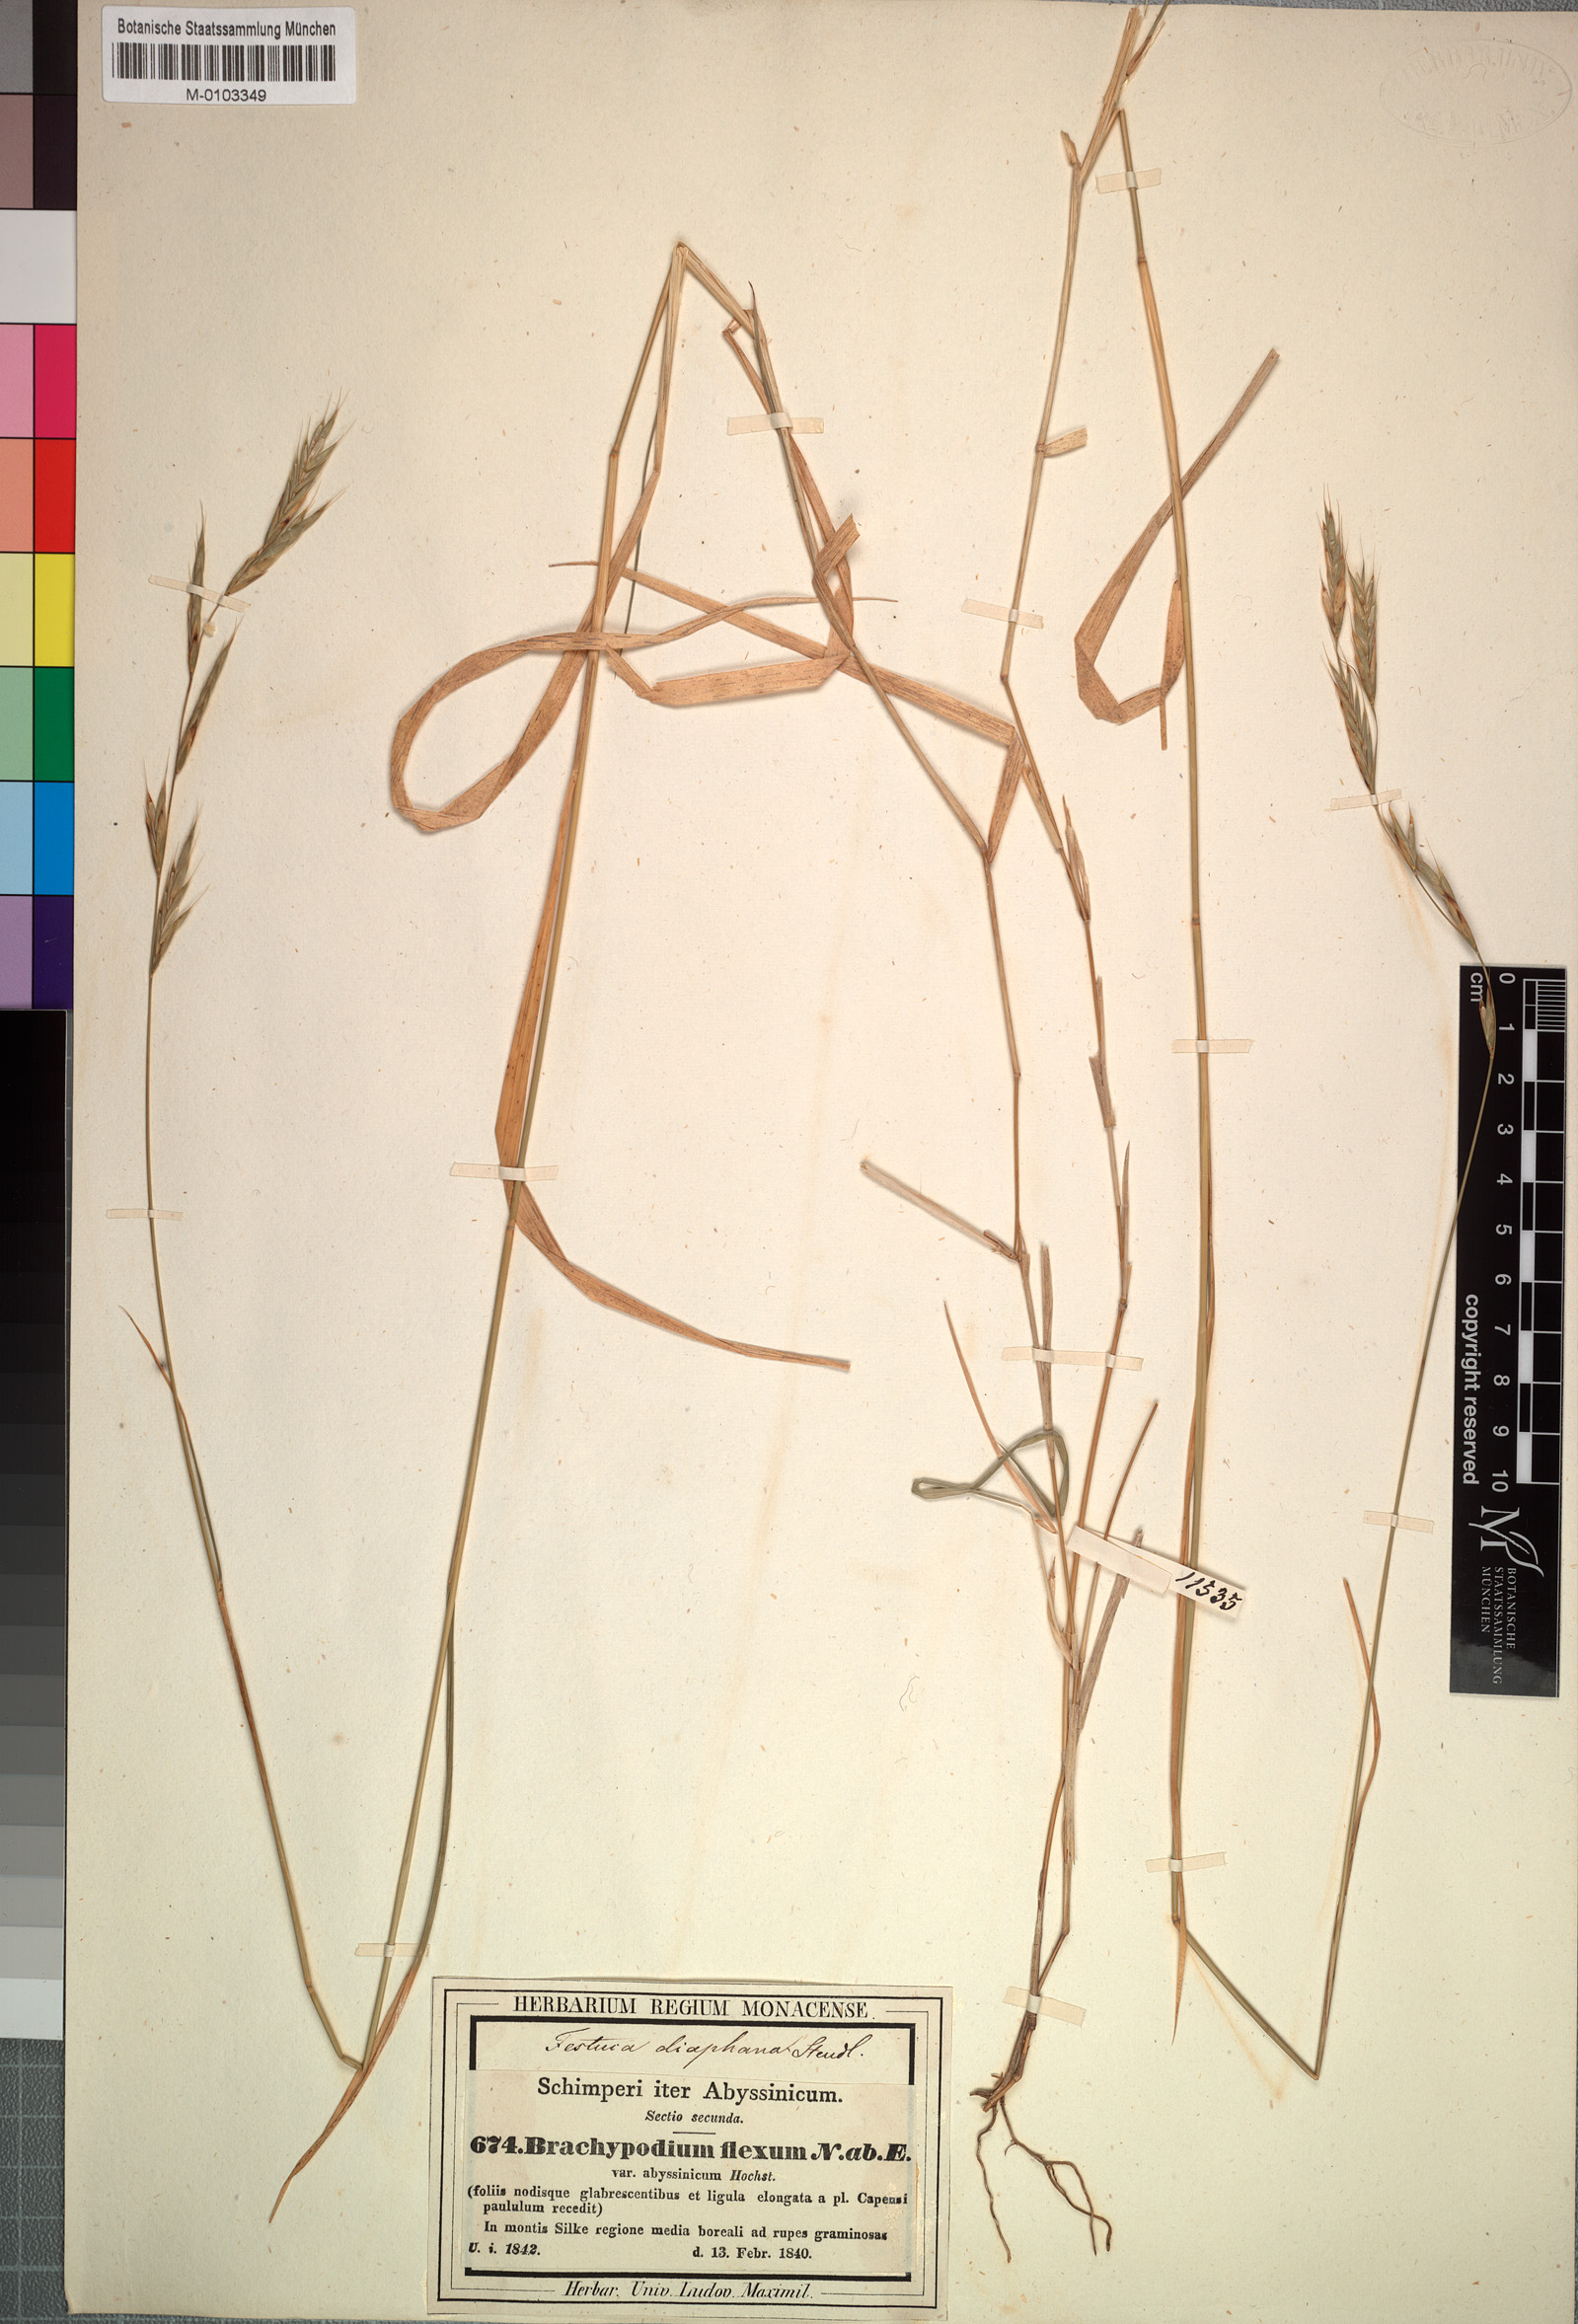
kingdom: Plantae
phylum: Tracheophyta
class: Liliopsida
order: Poales
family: Poaceae
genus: Brachypodium
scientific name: Brachypodium flexum
